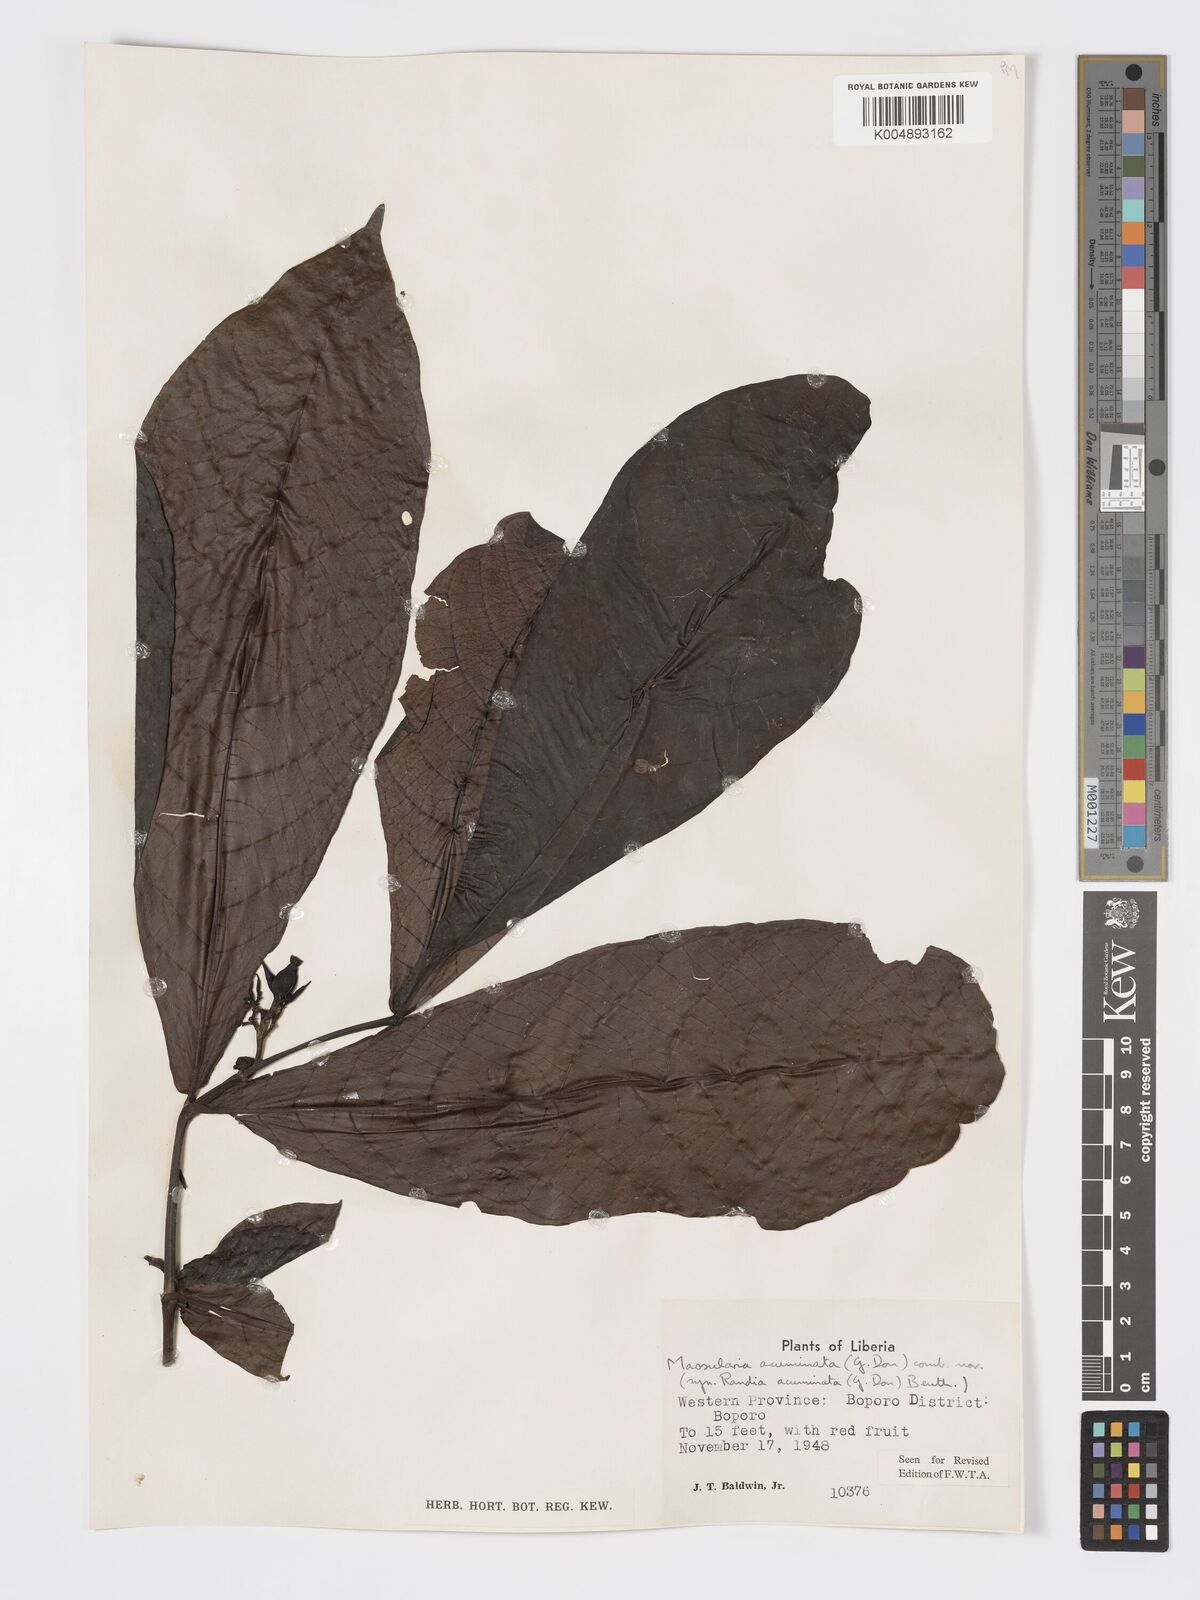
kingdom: Plantae
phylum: Tracheophyta
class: Magnoliopsida
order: Gentianales
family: Rubiaceae
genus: Massularia
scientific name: Massularia acuminata
